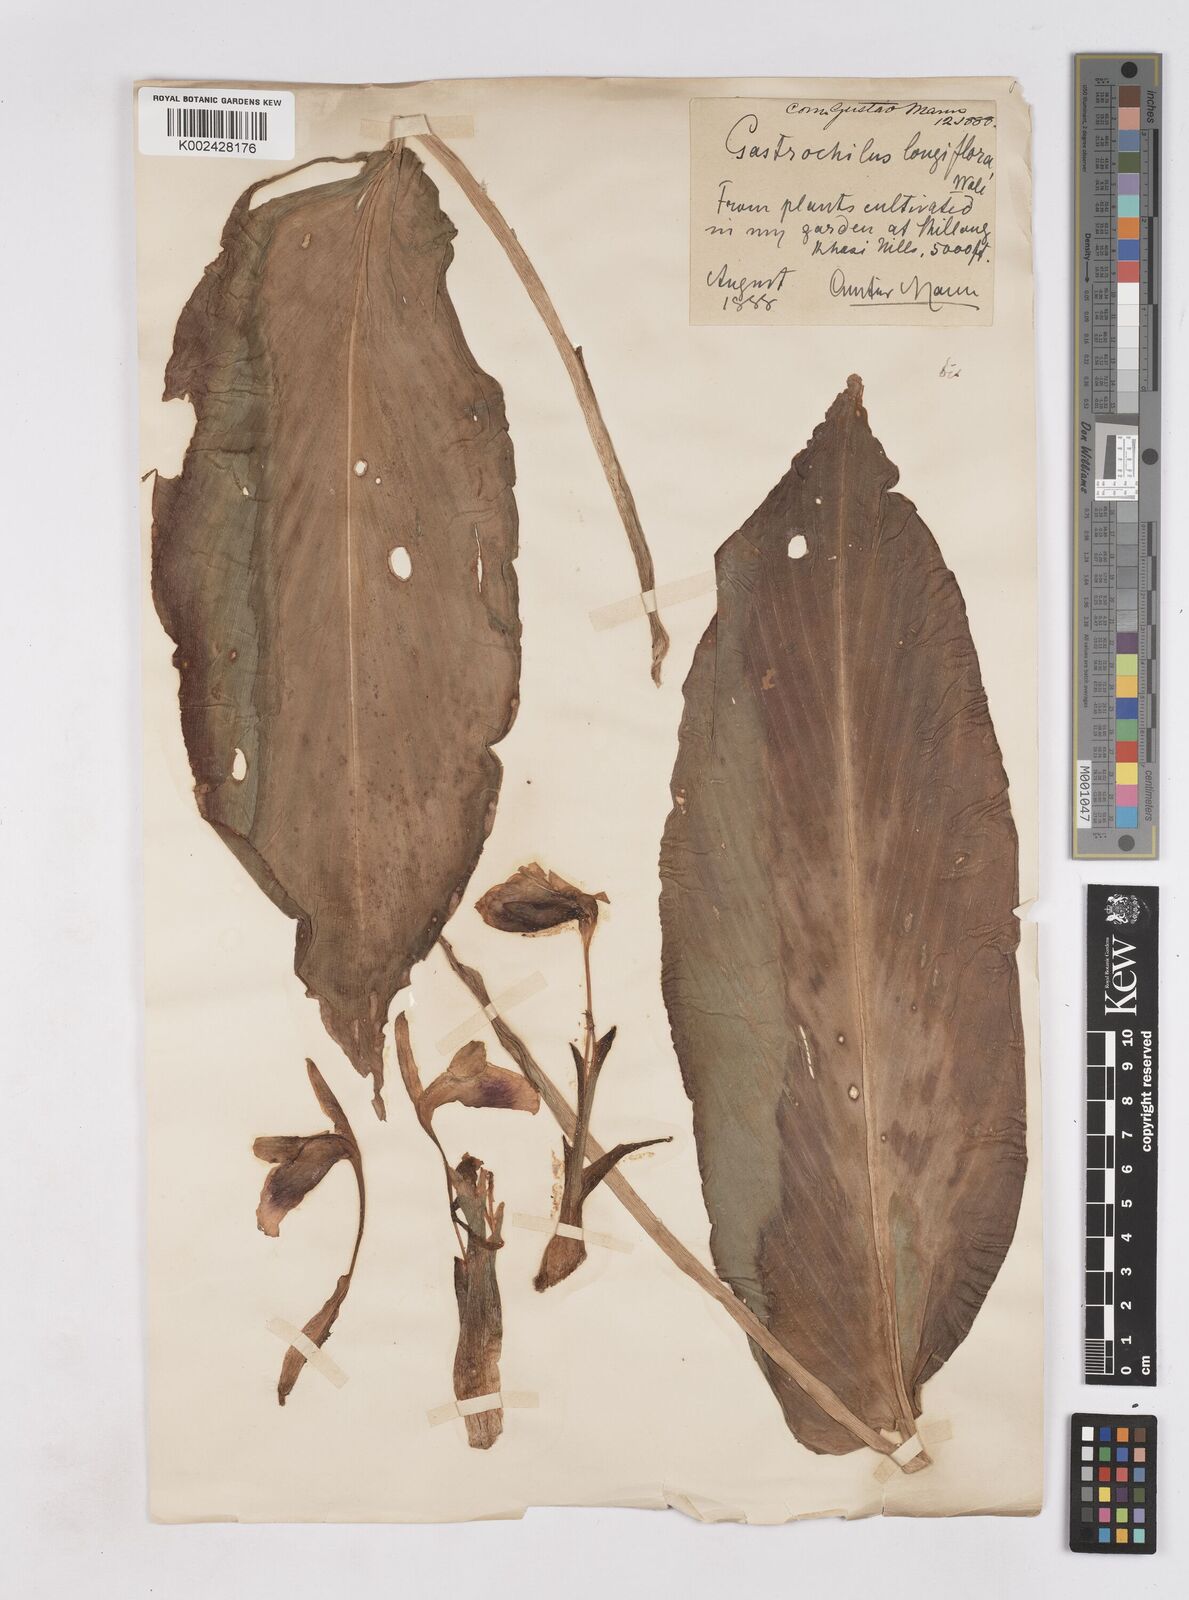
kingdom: Plantae
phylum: Tracheophyta
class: Liliopsida
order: Zingiberales
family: Zingiberaceae
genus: Boesenbergia
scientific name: Boesenbergia longiflora
